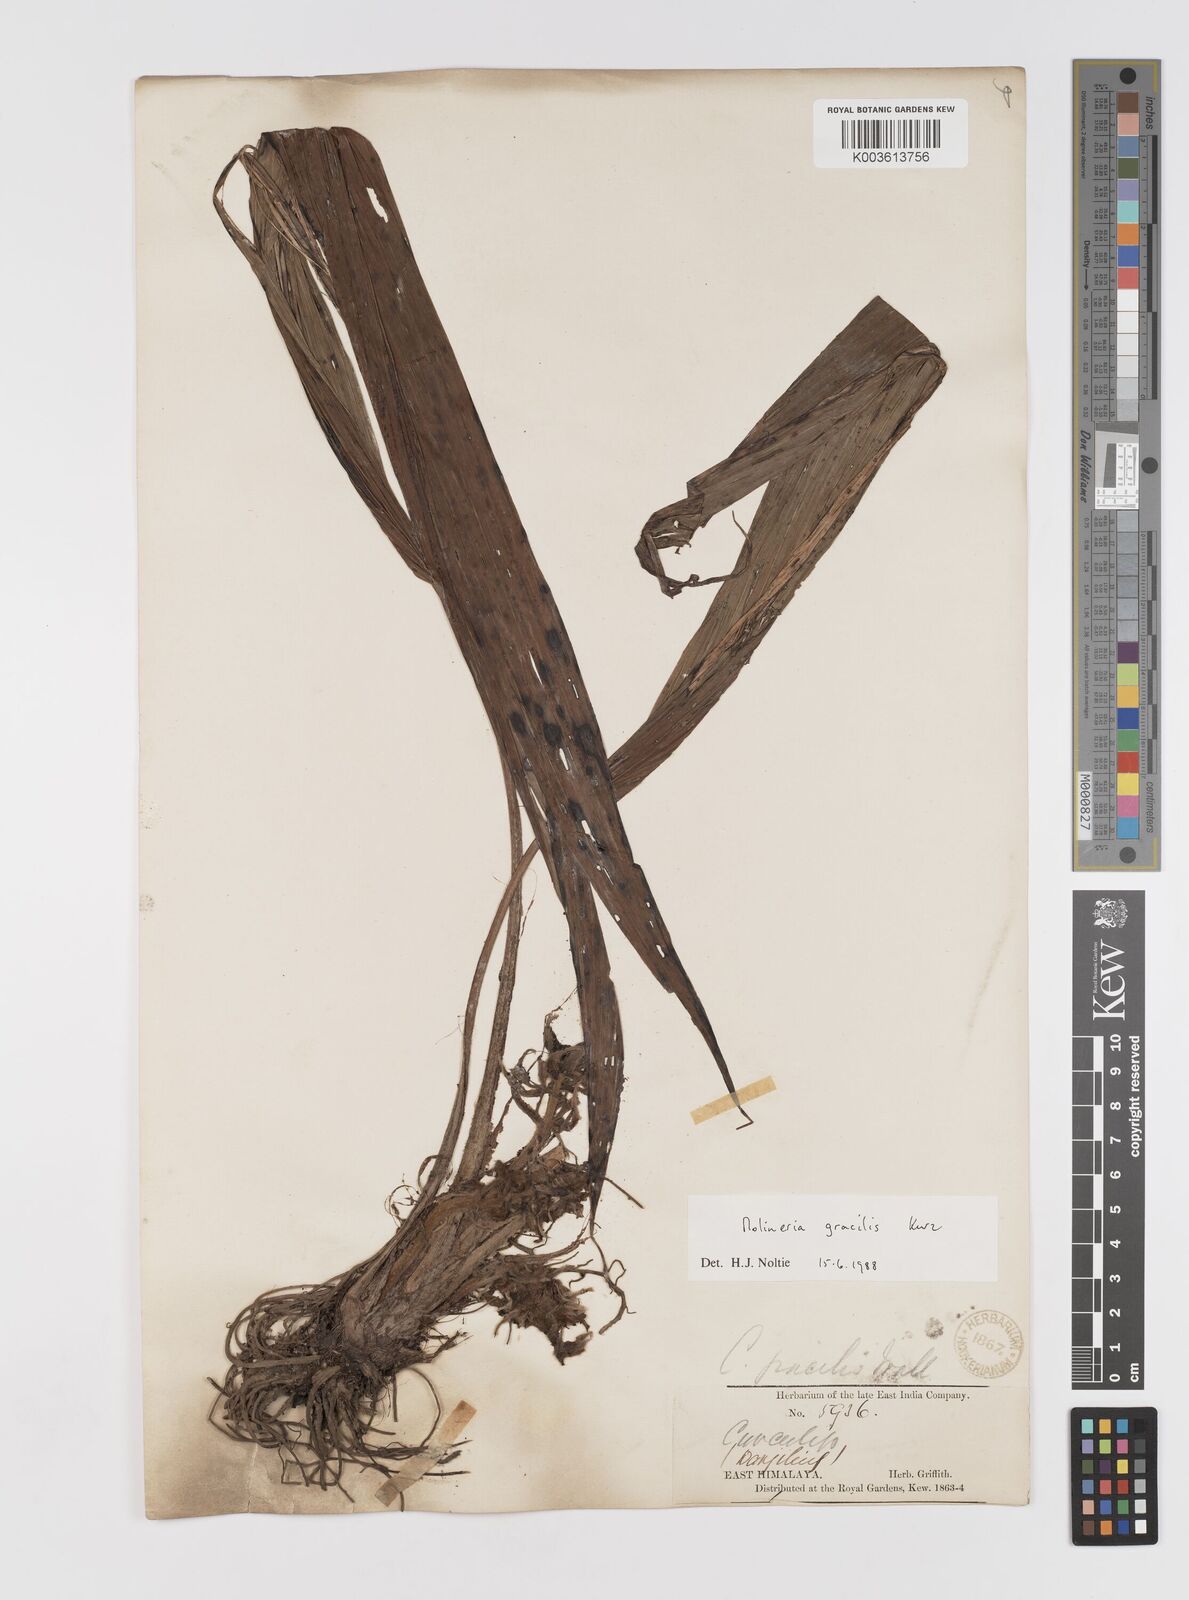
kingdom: Plantae
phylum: Tracheophyta
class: Liliopsida
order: Asparagales
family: Hypoxidaceae
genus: Curculigo
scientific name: Curculigo gracilis
